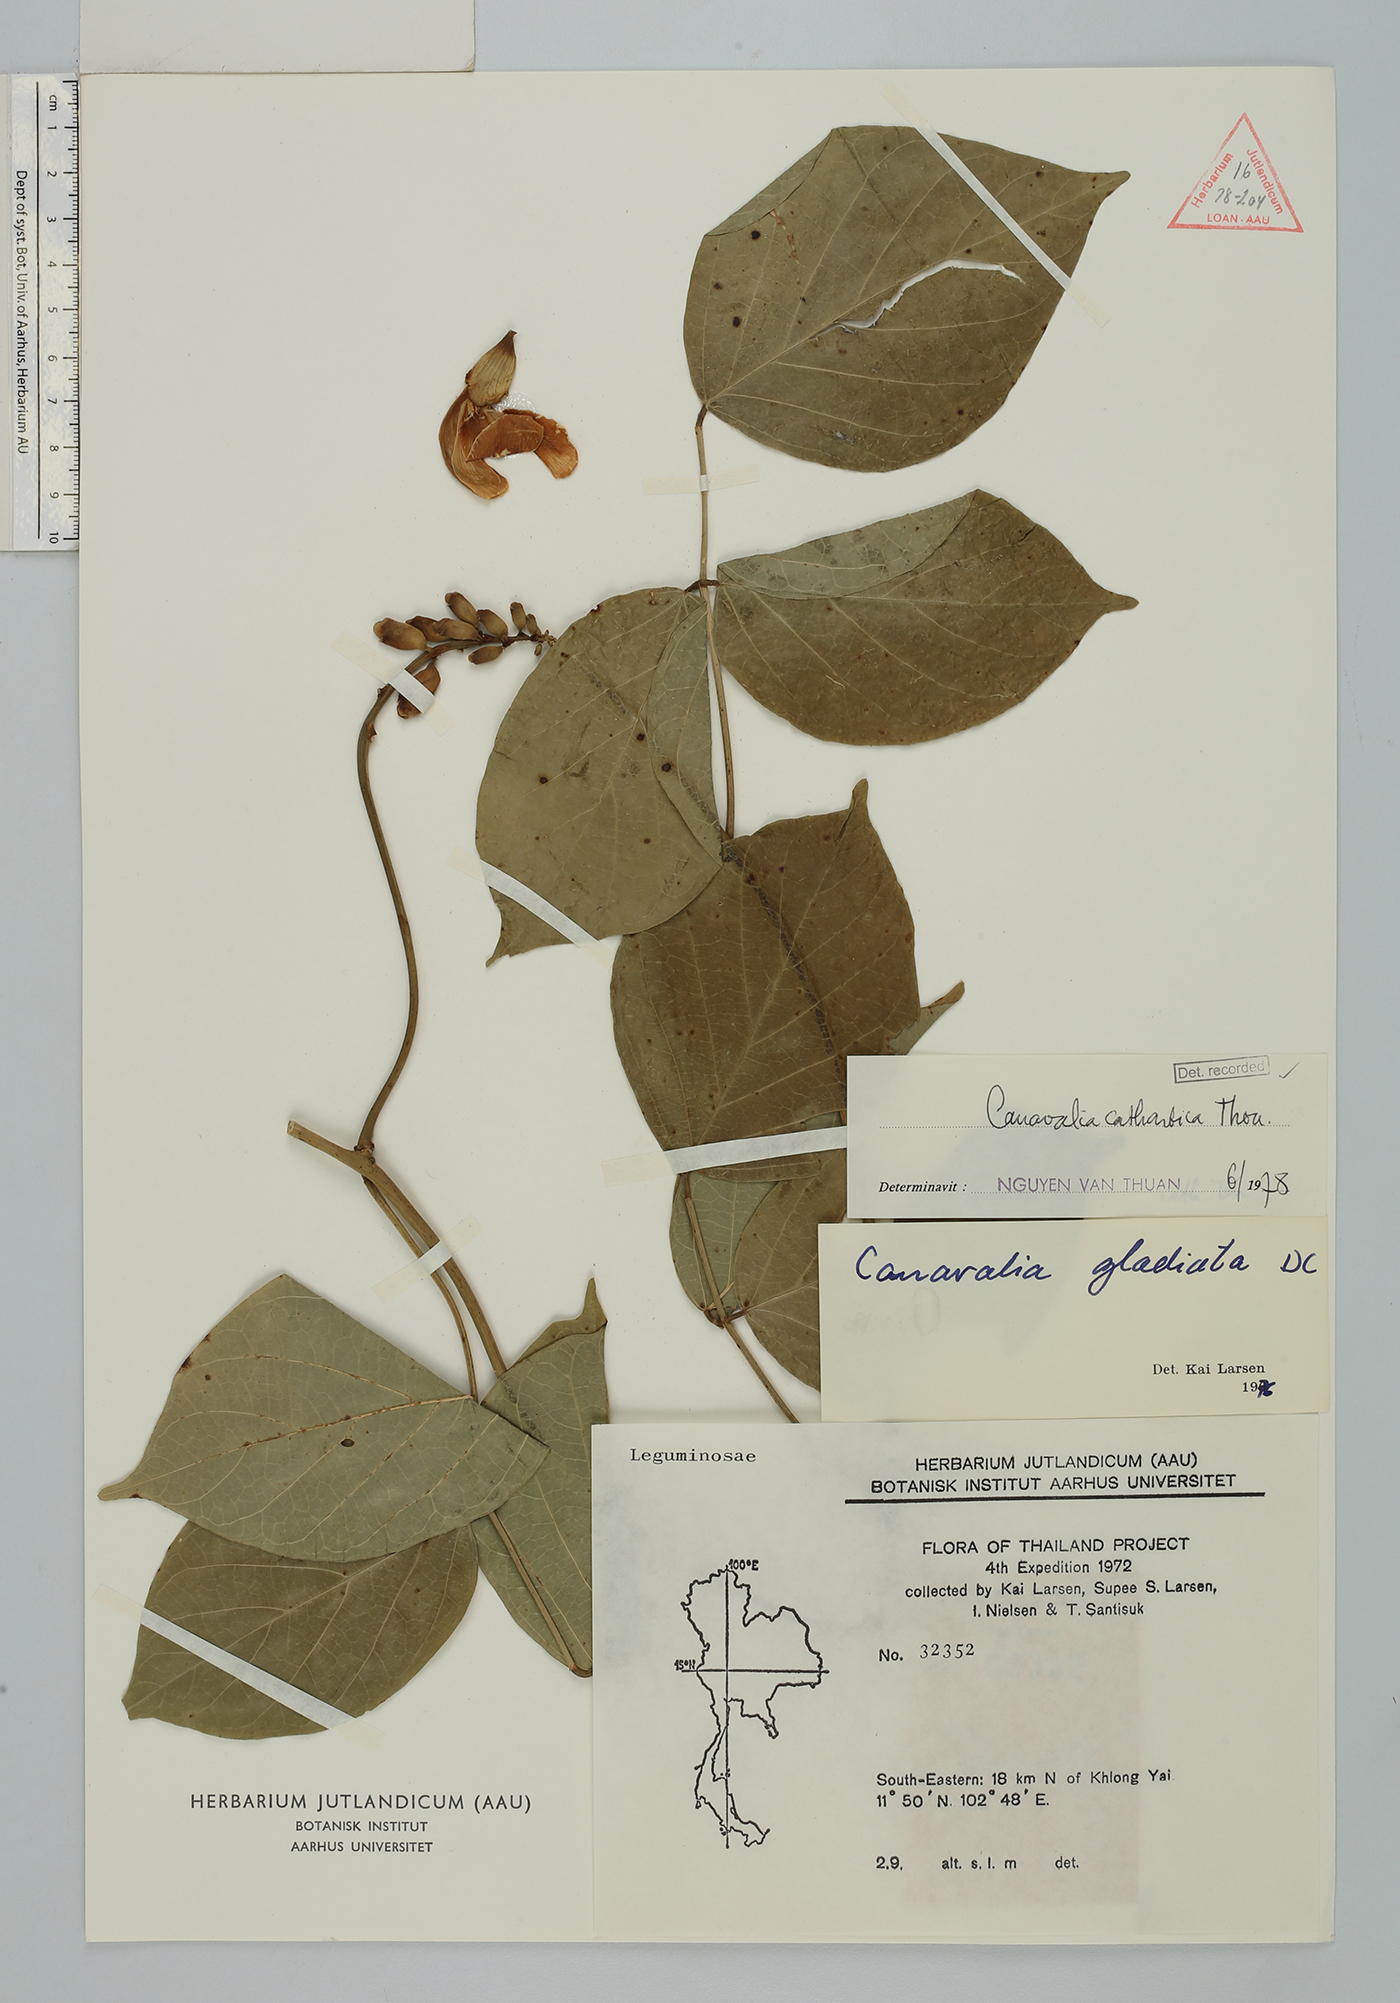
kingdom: Plantae
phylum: Tracheophyta
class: Magnoliopsida
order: Fabales
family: Fabaceae
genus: Canavalia
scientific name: Canavalia cathartica
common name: Maunaloa
